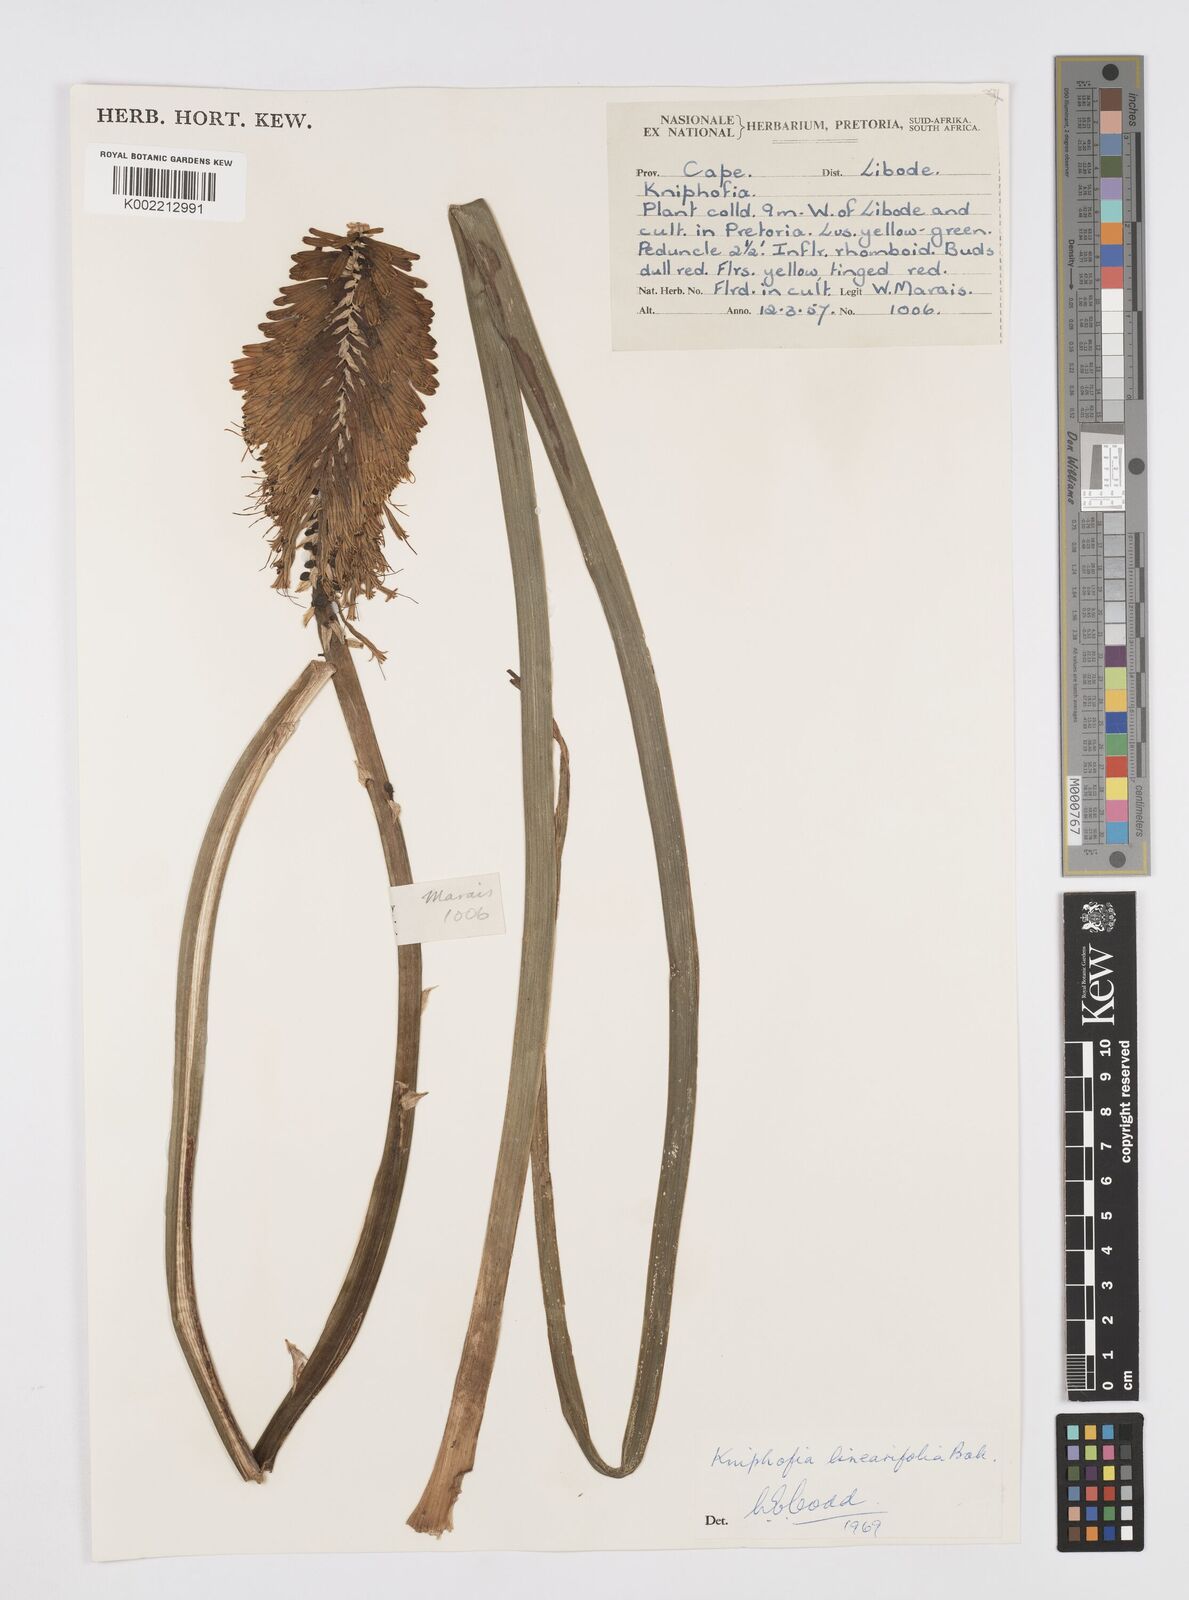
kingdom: Plantae
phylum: Tracheophyta
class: Liliopsida
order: Asparagales
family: Asphodelaceae
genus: Kniphofia
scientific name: Kniphofia linearifolia
